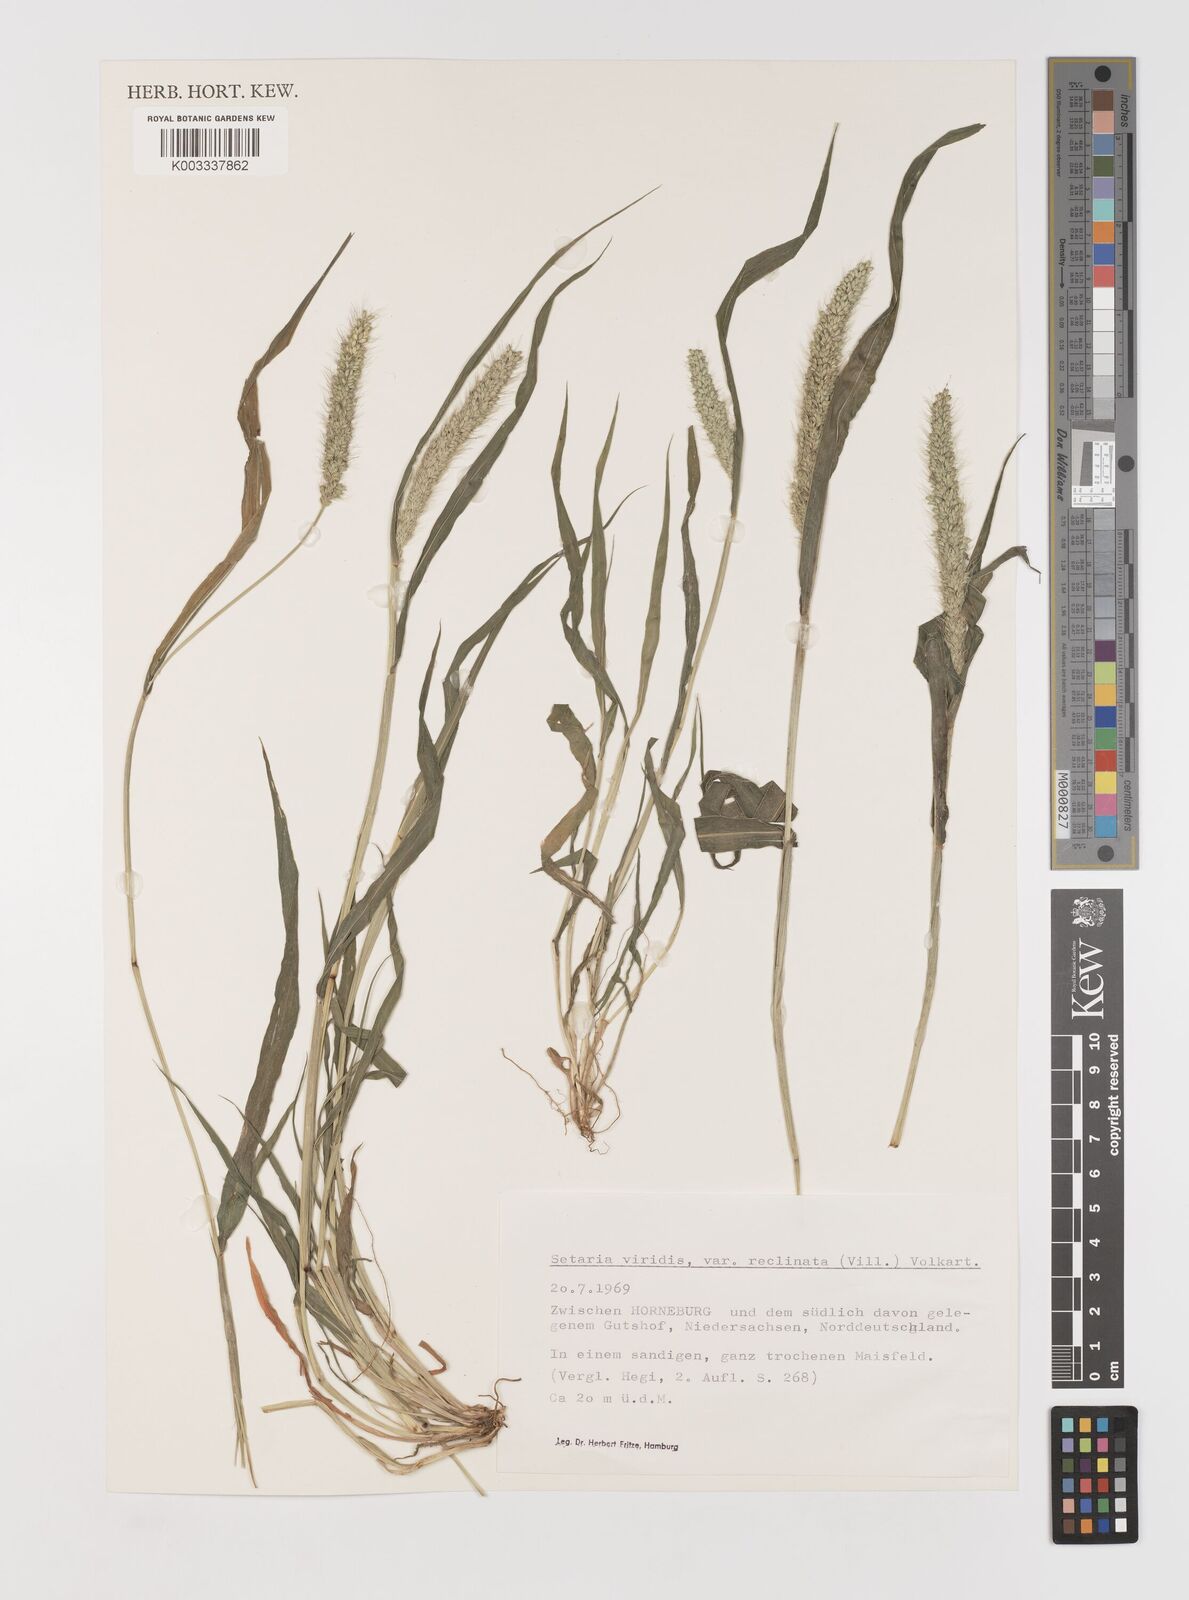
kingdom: Plantae
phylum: Tracheophyta
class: Liliopsida
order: Poales
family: Poaceae
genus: Setaria
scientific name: Setaria viridis
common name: Green bristlegrass
